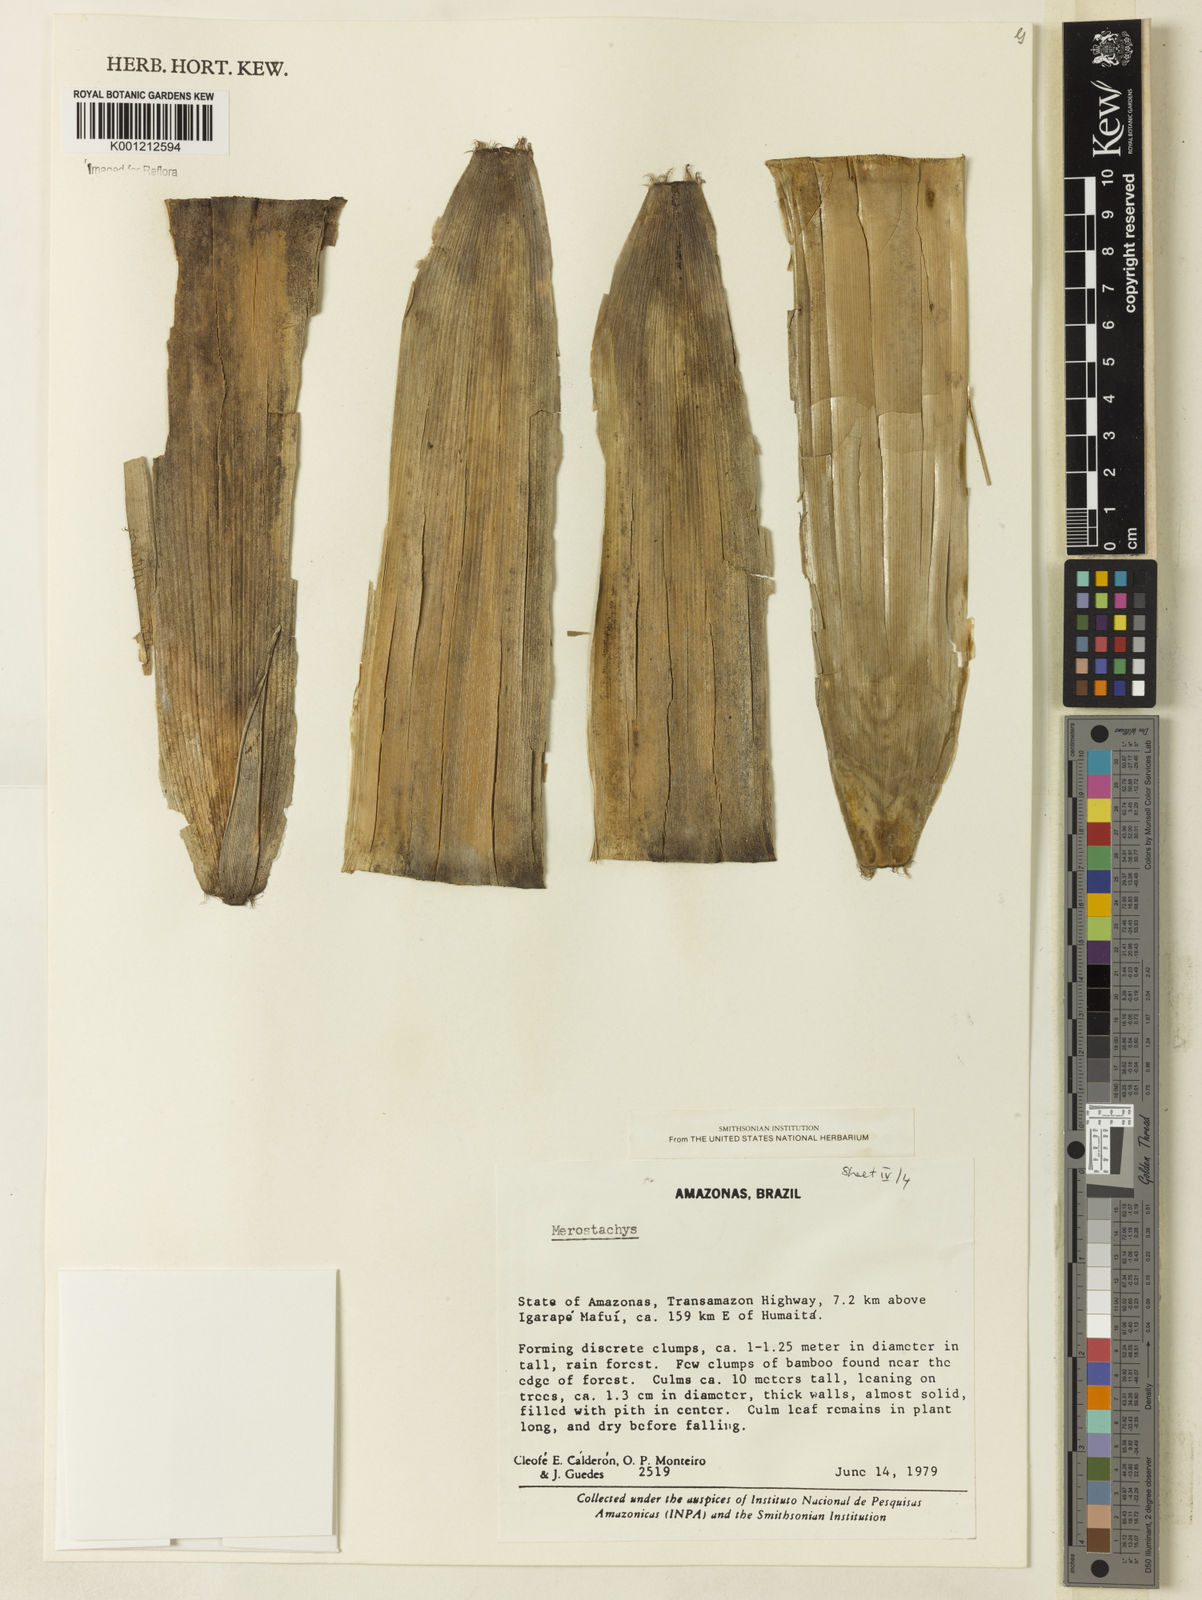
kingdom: Plantae
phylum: Tracheophyta
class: Liliopsida
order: Poales
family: Poaceae
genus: Merostachys
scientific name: Merostachys
